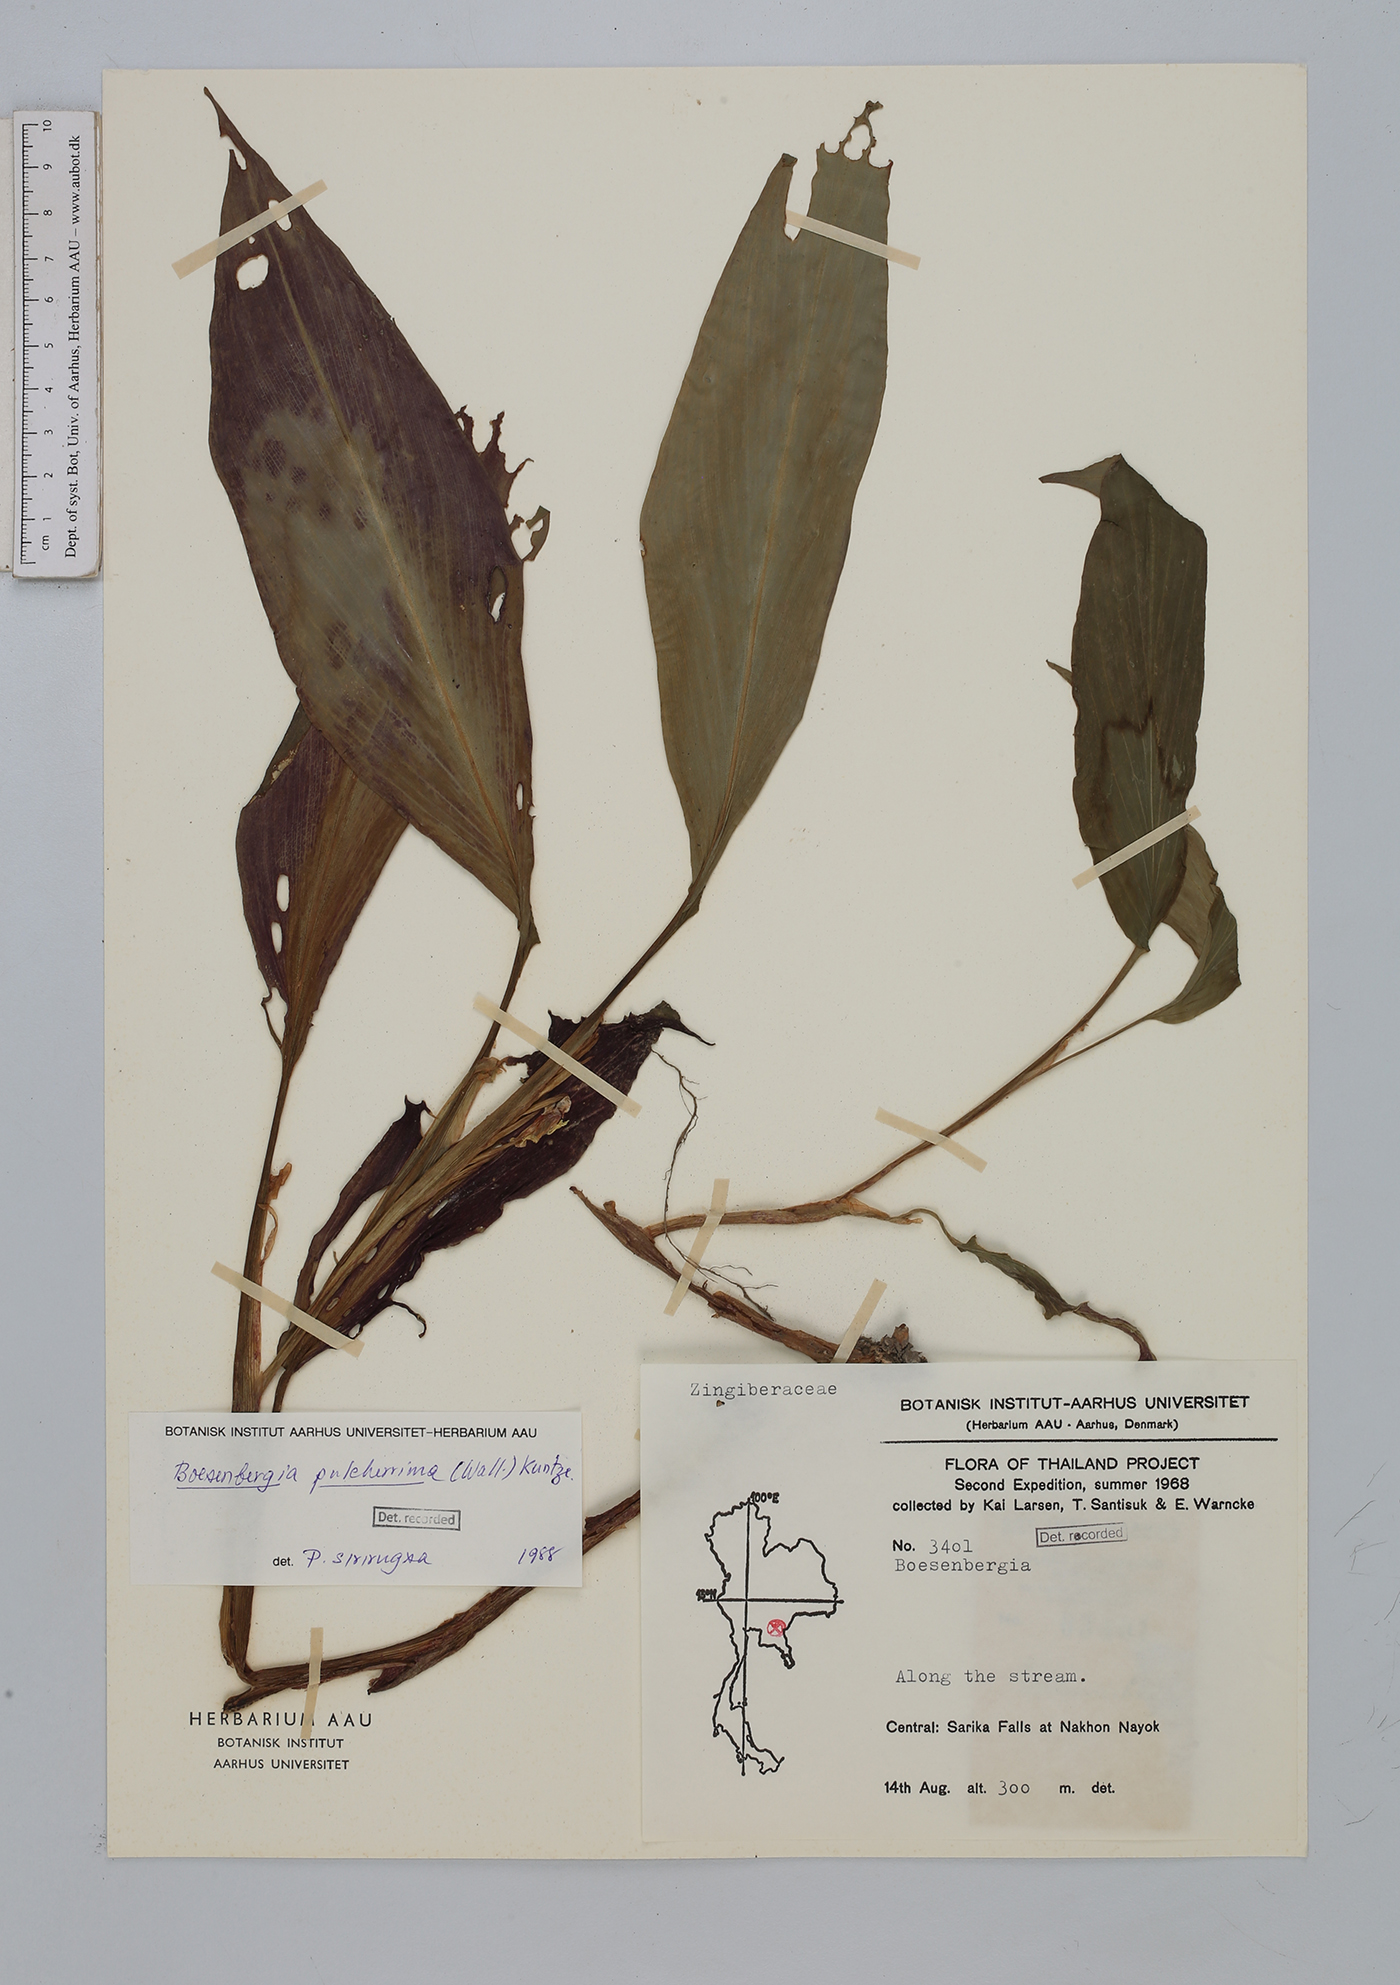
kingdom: Plantae
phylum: Tracheophyta
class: Liliopsida
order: Zingiberales
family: Zingiberaceae
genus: Boesenbergia
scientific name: Boesenbergia pulcherrima
